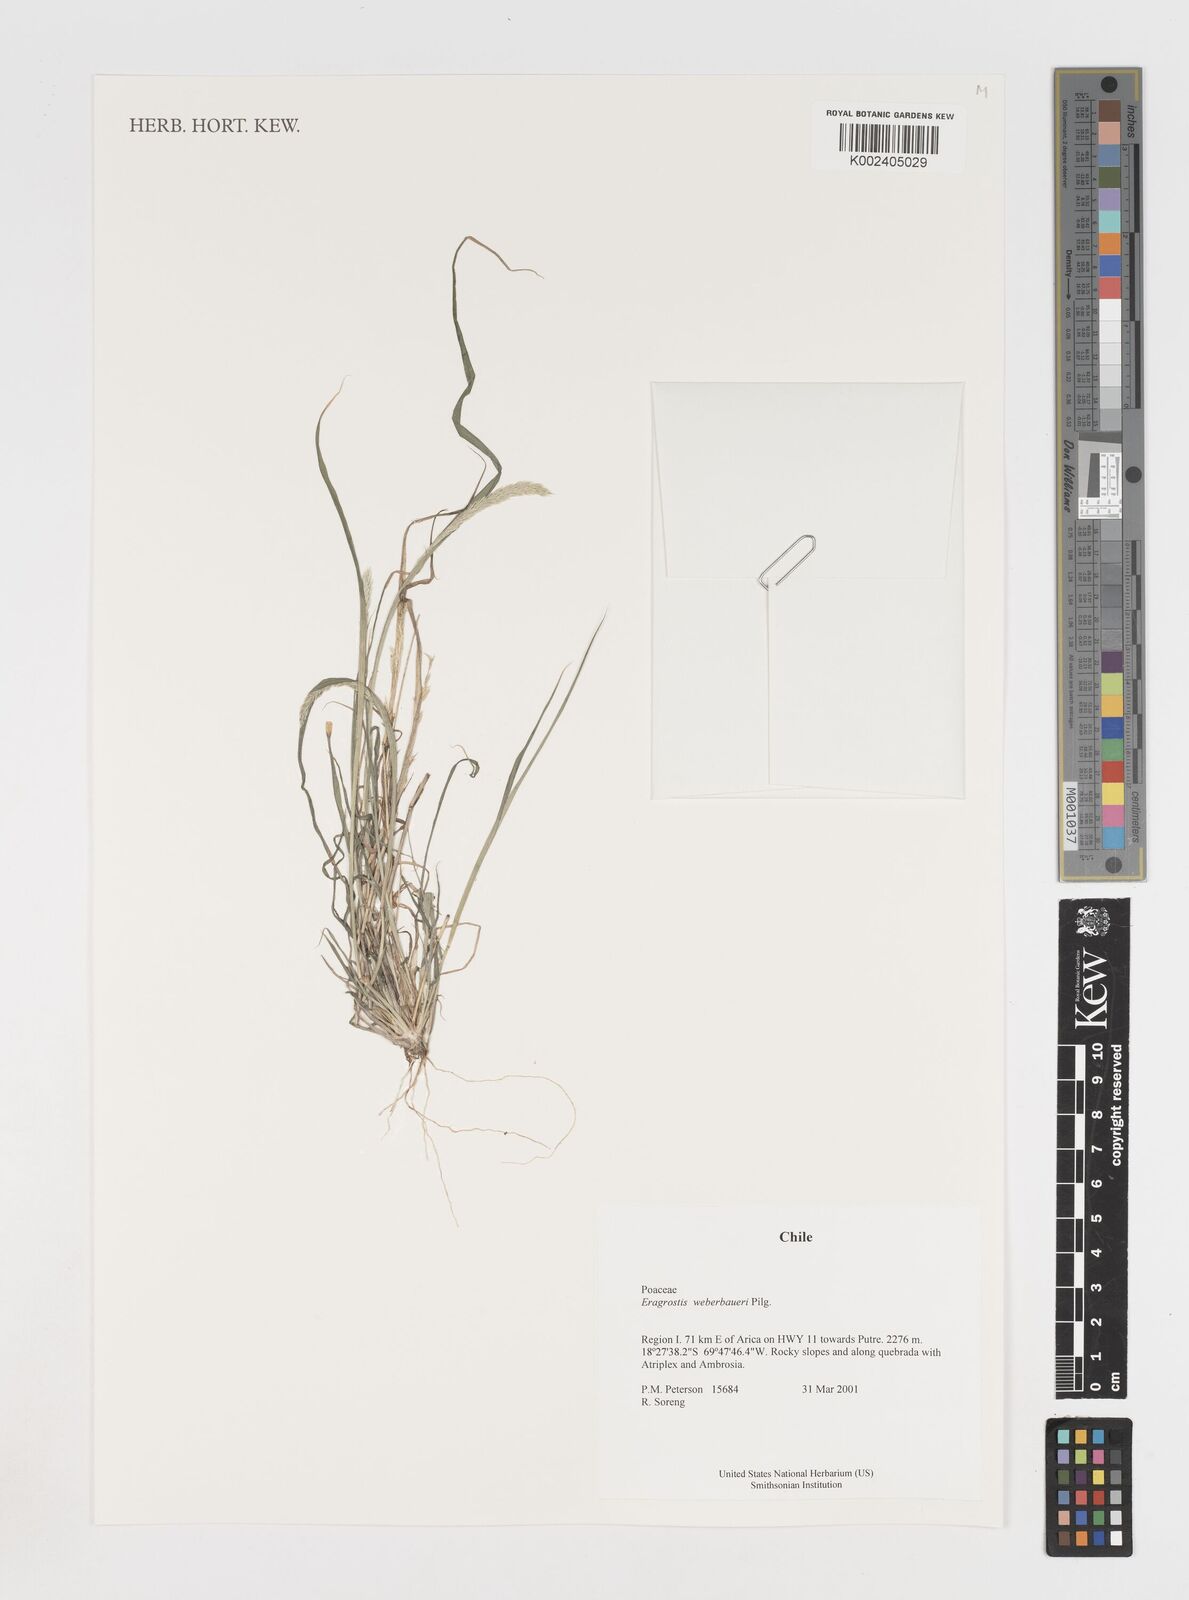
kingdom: Plantae
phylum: Tracheophyta
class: Liliopsida
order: Poales
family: Poaceae
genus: Eragrostis
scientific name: Eragrostis weberbaueri
